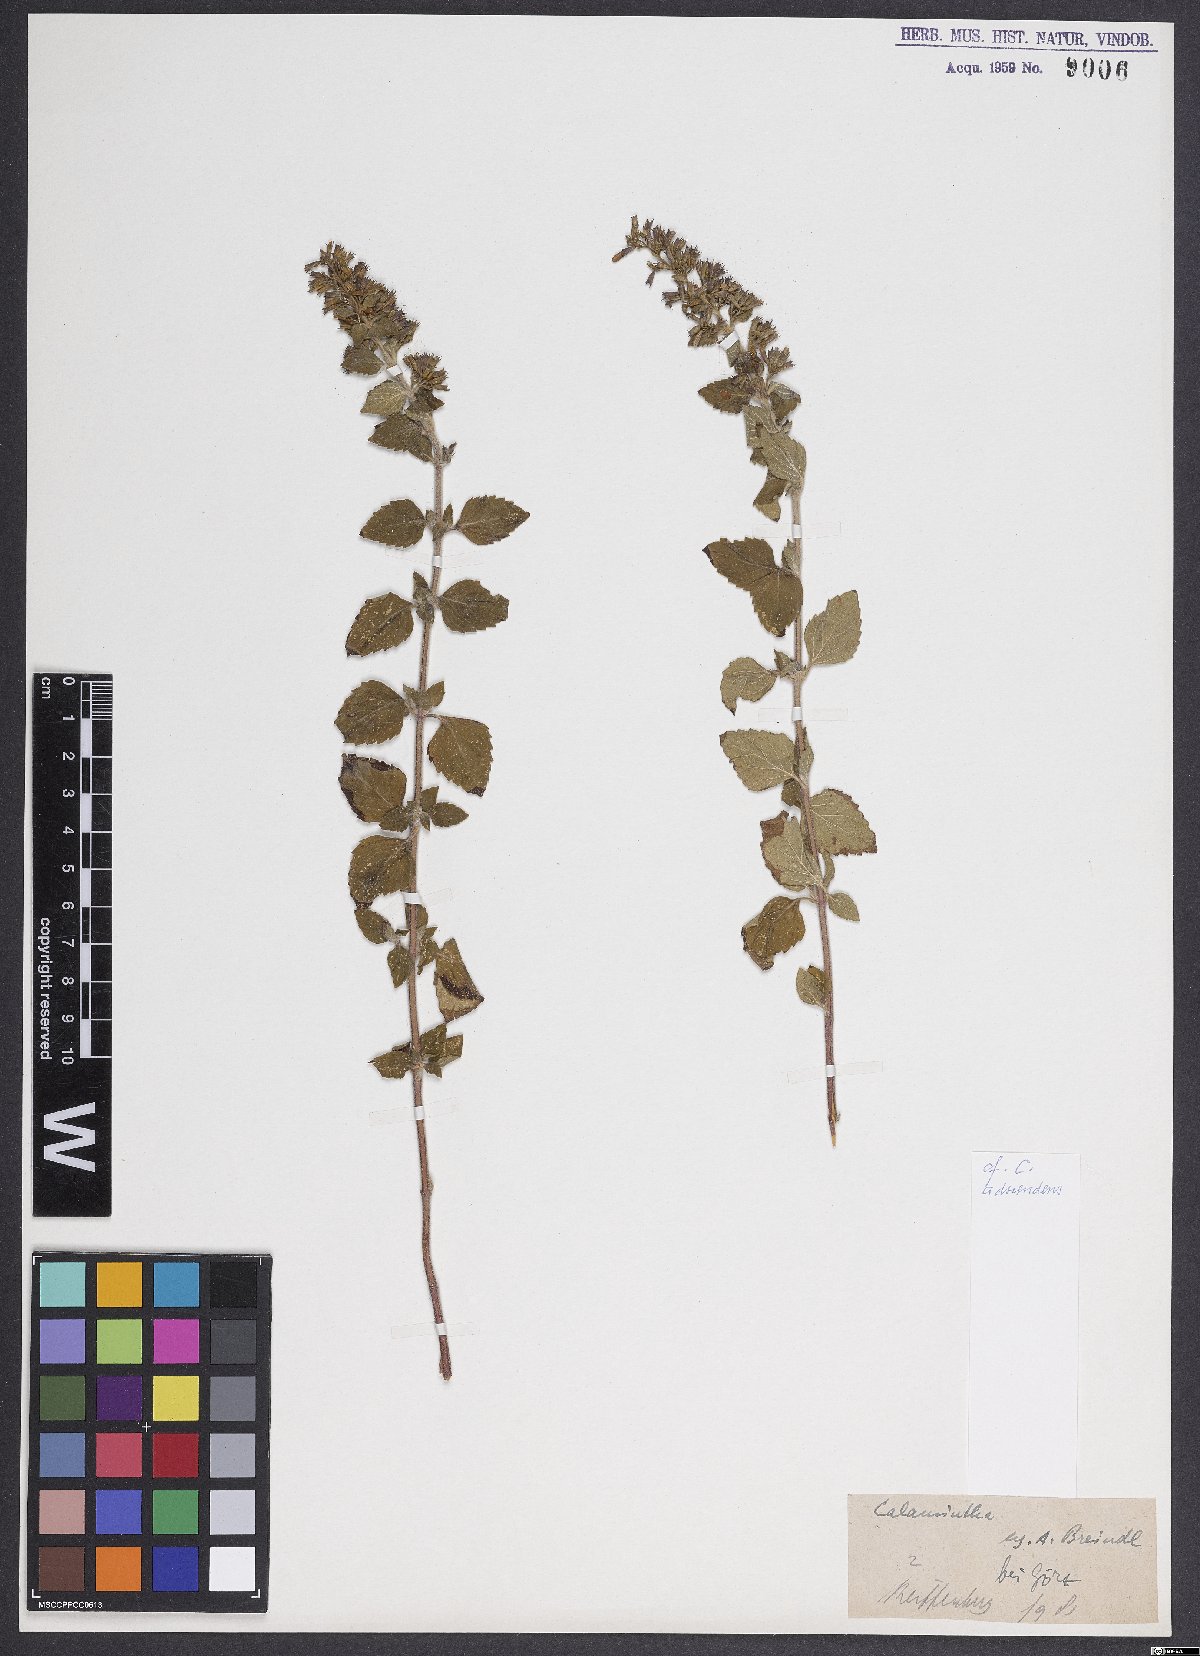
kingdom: Plantae
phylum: Tracheophyta
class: Magnoliopsida
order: Lamiales
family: Lamiaceae
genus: Clinopodium
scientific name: Clinopodium menthifolium
